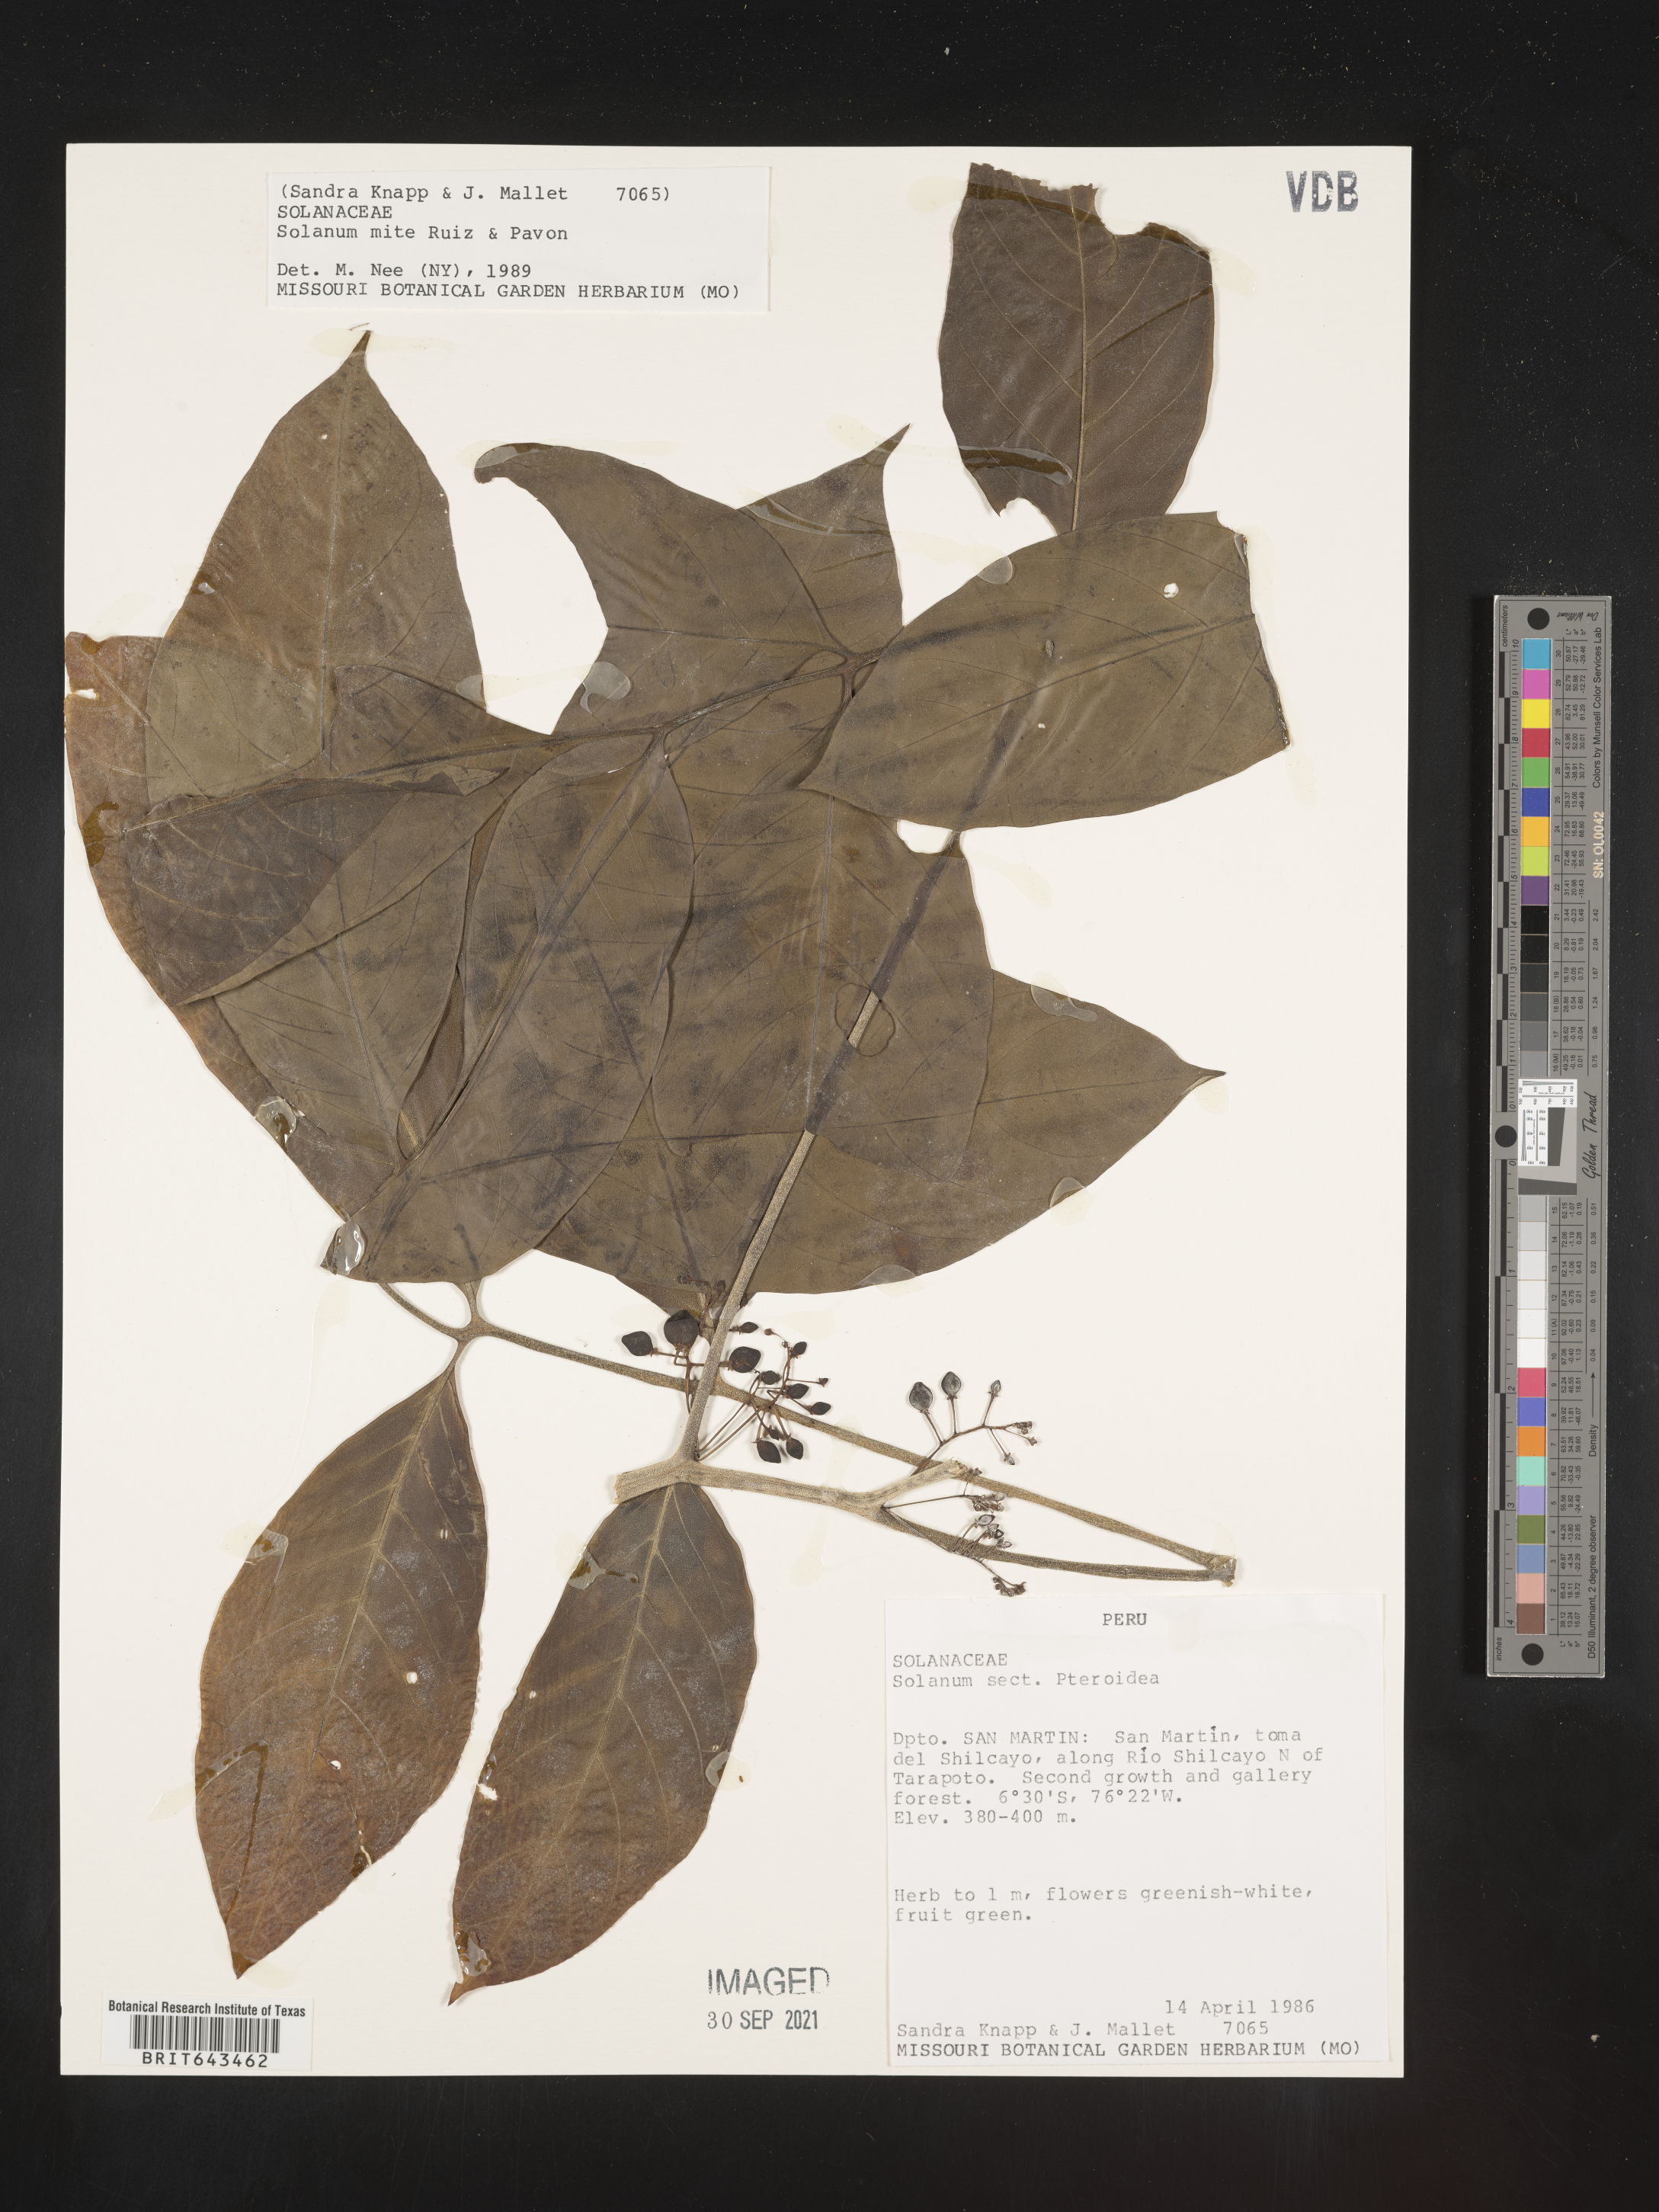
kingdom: Plantae
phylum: Tracheophyta
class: Magnoliopsida
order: Solanales
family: Solanaceae
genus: Solanum
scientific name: Solanum
